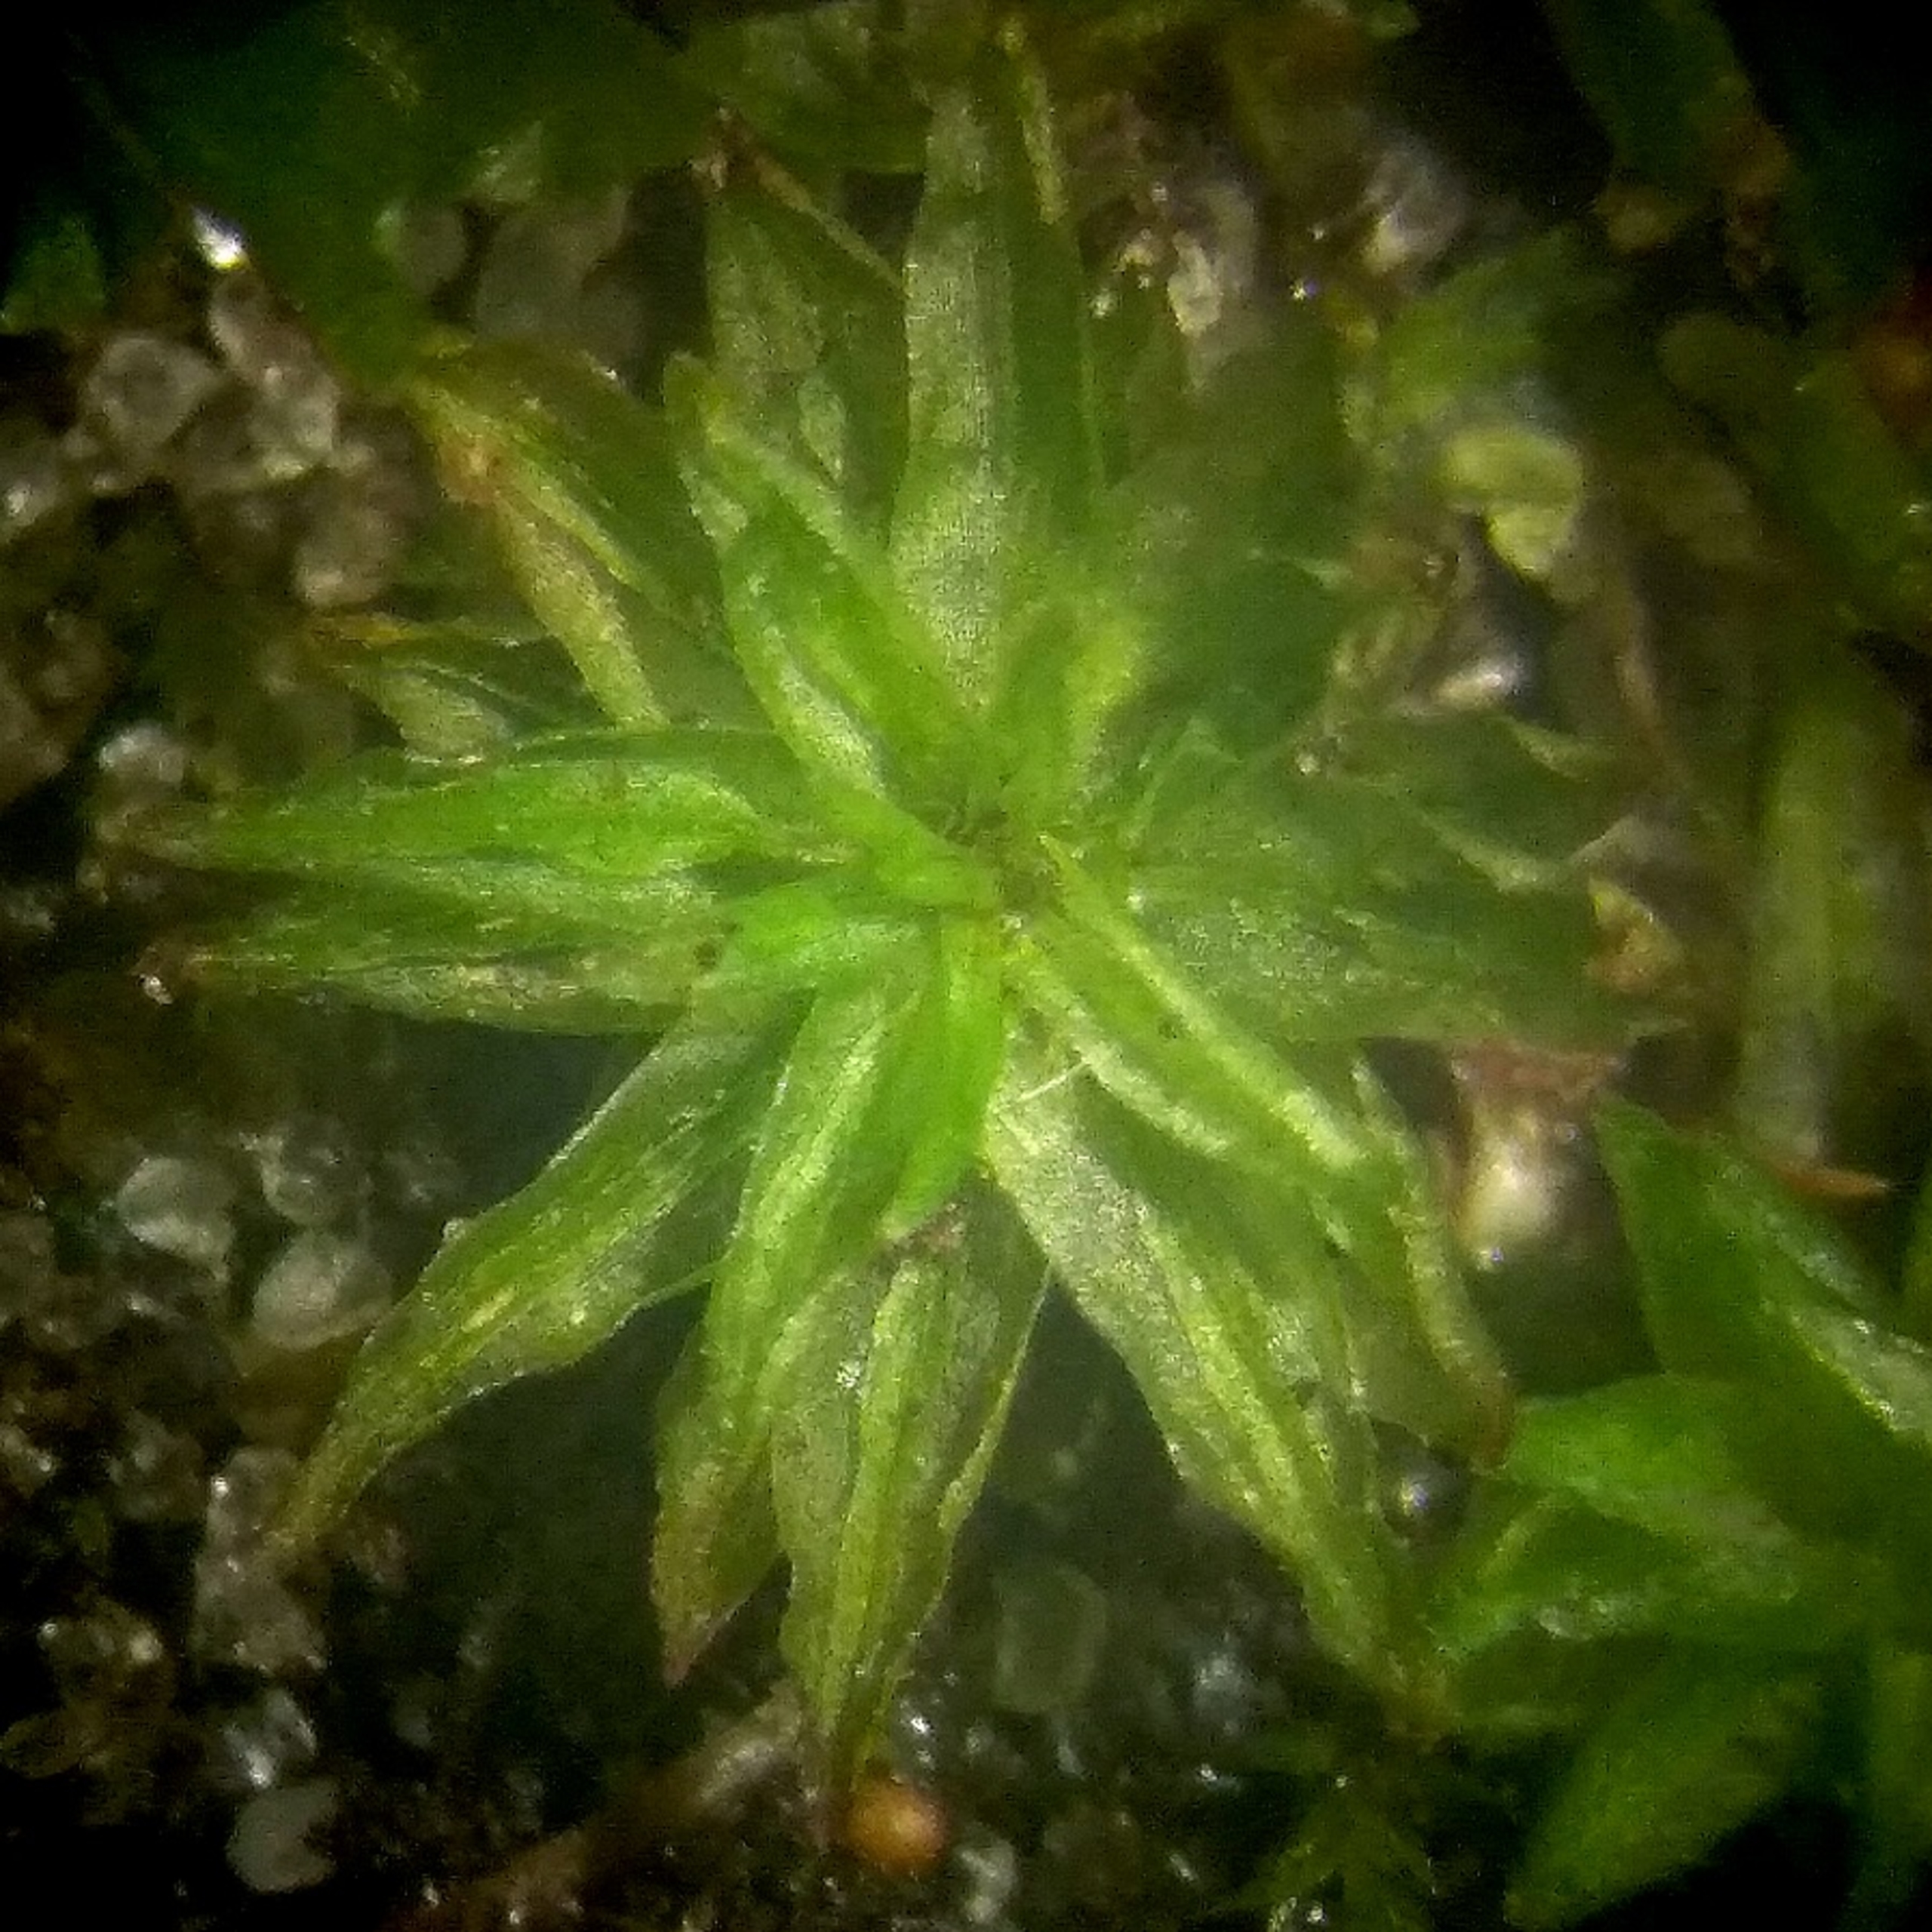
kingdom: Plantae
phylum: Bryophyta
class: Polytrichopsida
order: Polytrichales
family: Polytrichaceae
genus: Atrichum
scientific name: Atrichum tenellum
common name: Lille katrinemos
